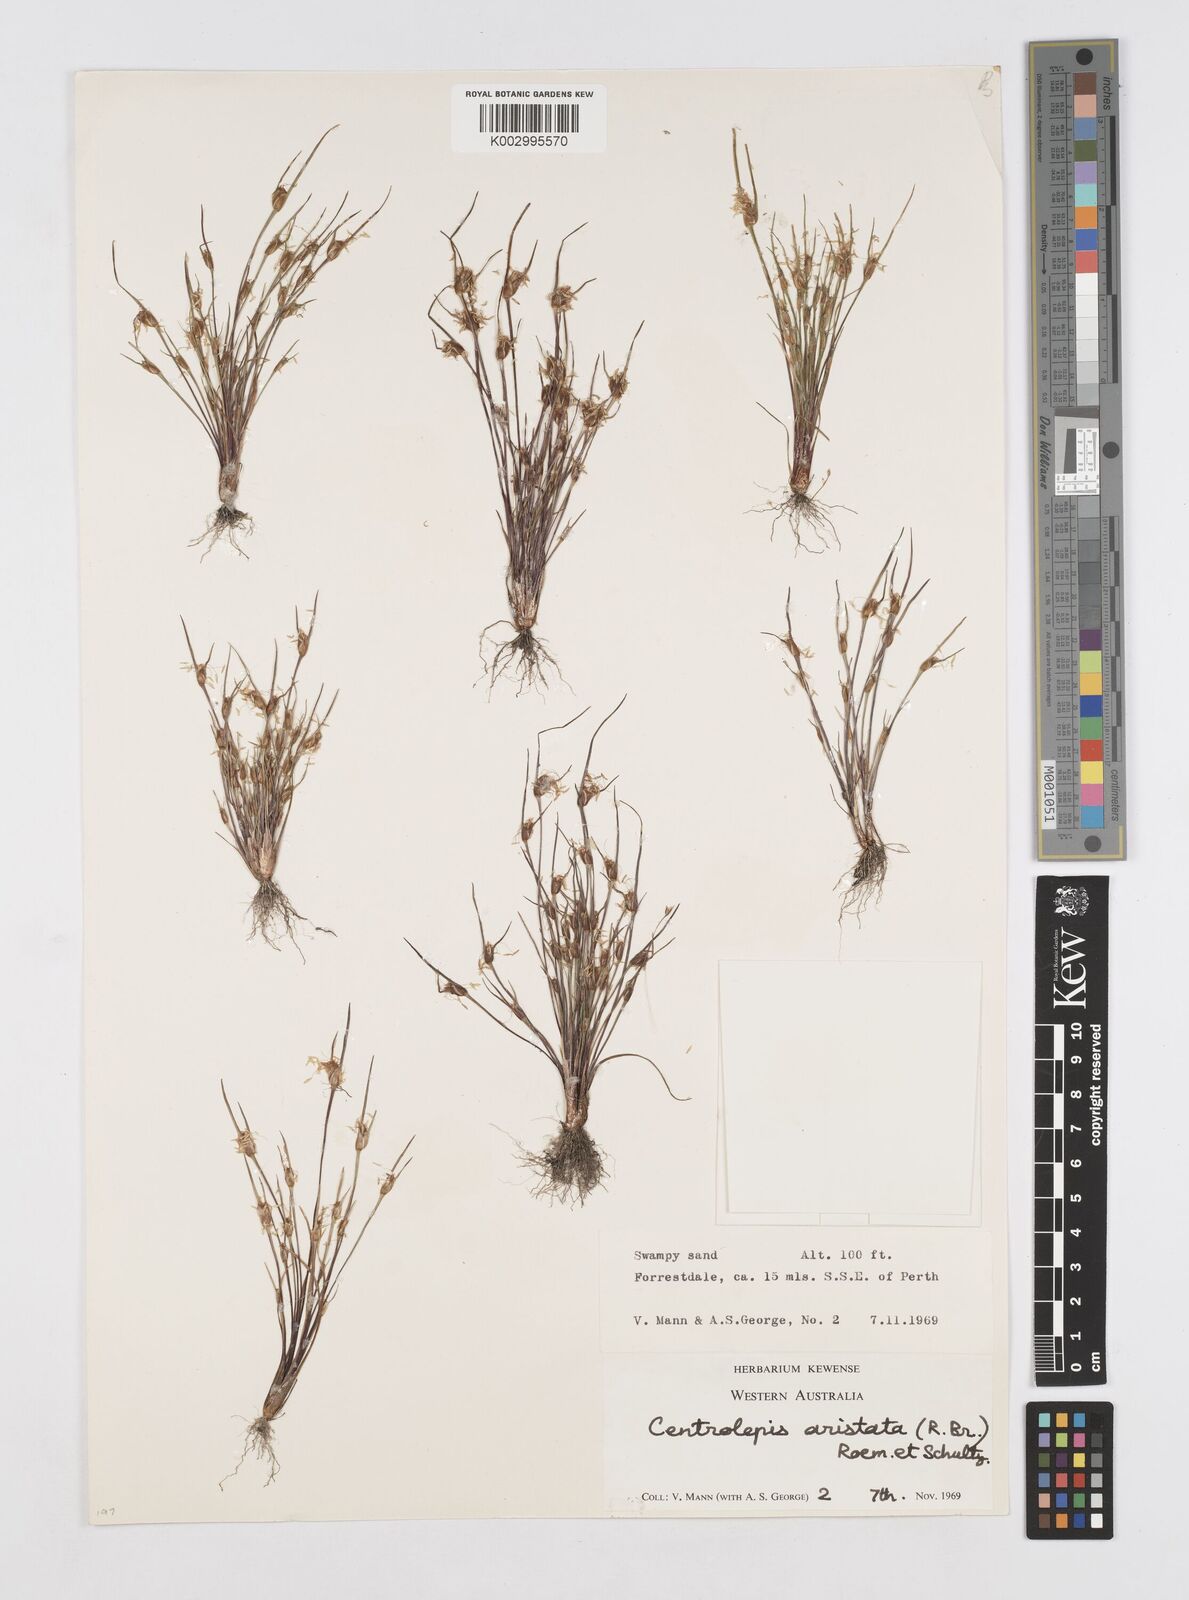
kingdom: Plantae
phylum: Tracheophyta
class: Liliopsida
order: Poales
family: Restionaceae
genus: Centrolepis
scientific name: Centrolepis aristata
